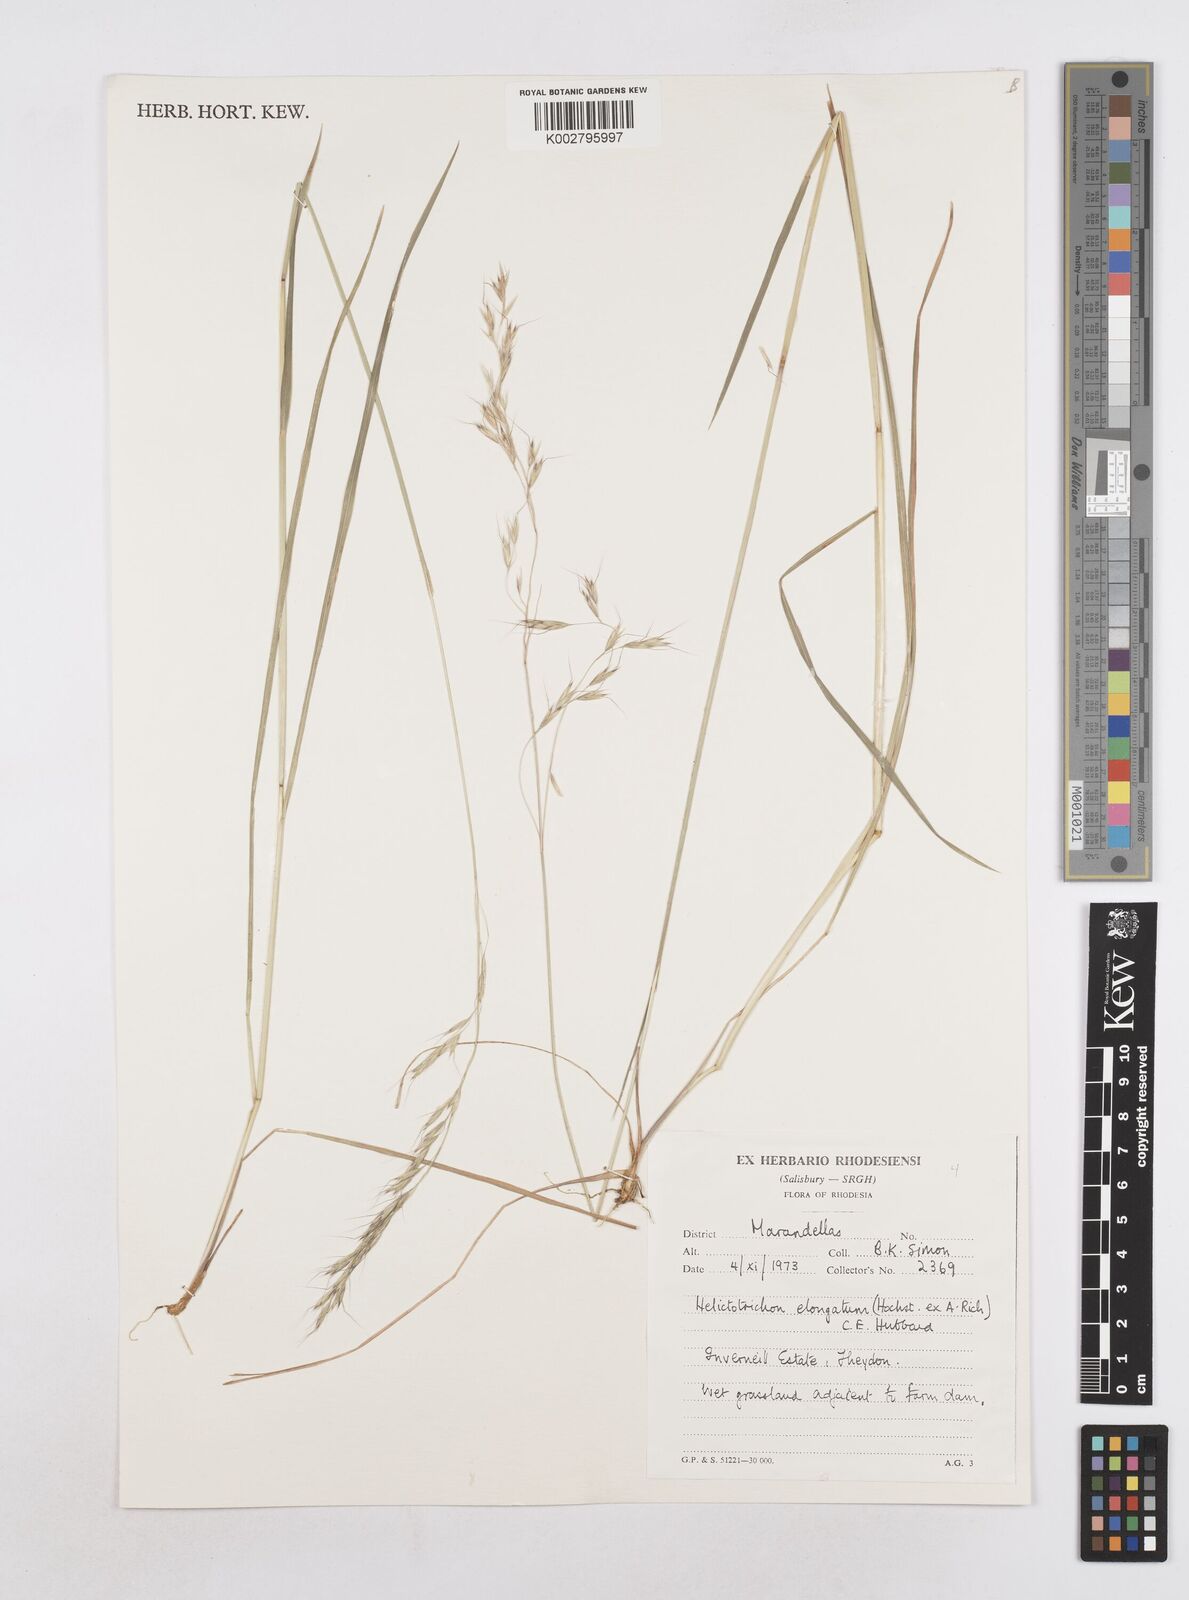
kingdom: Plantae
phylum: Tracheophyta
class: Liliopsida
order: Poales
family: Poaceae
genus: Trisetopsis
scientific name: Trisetopsis elongata
